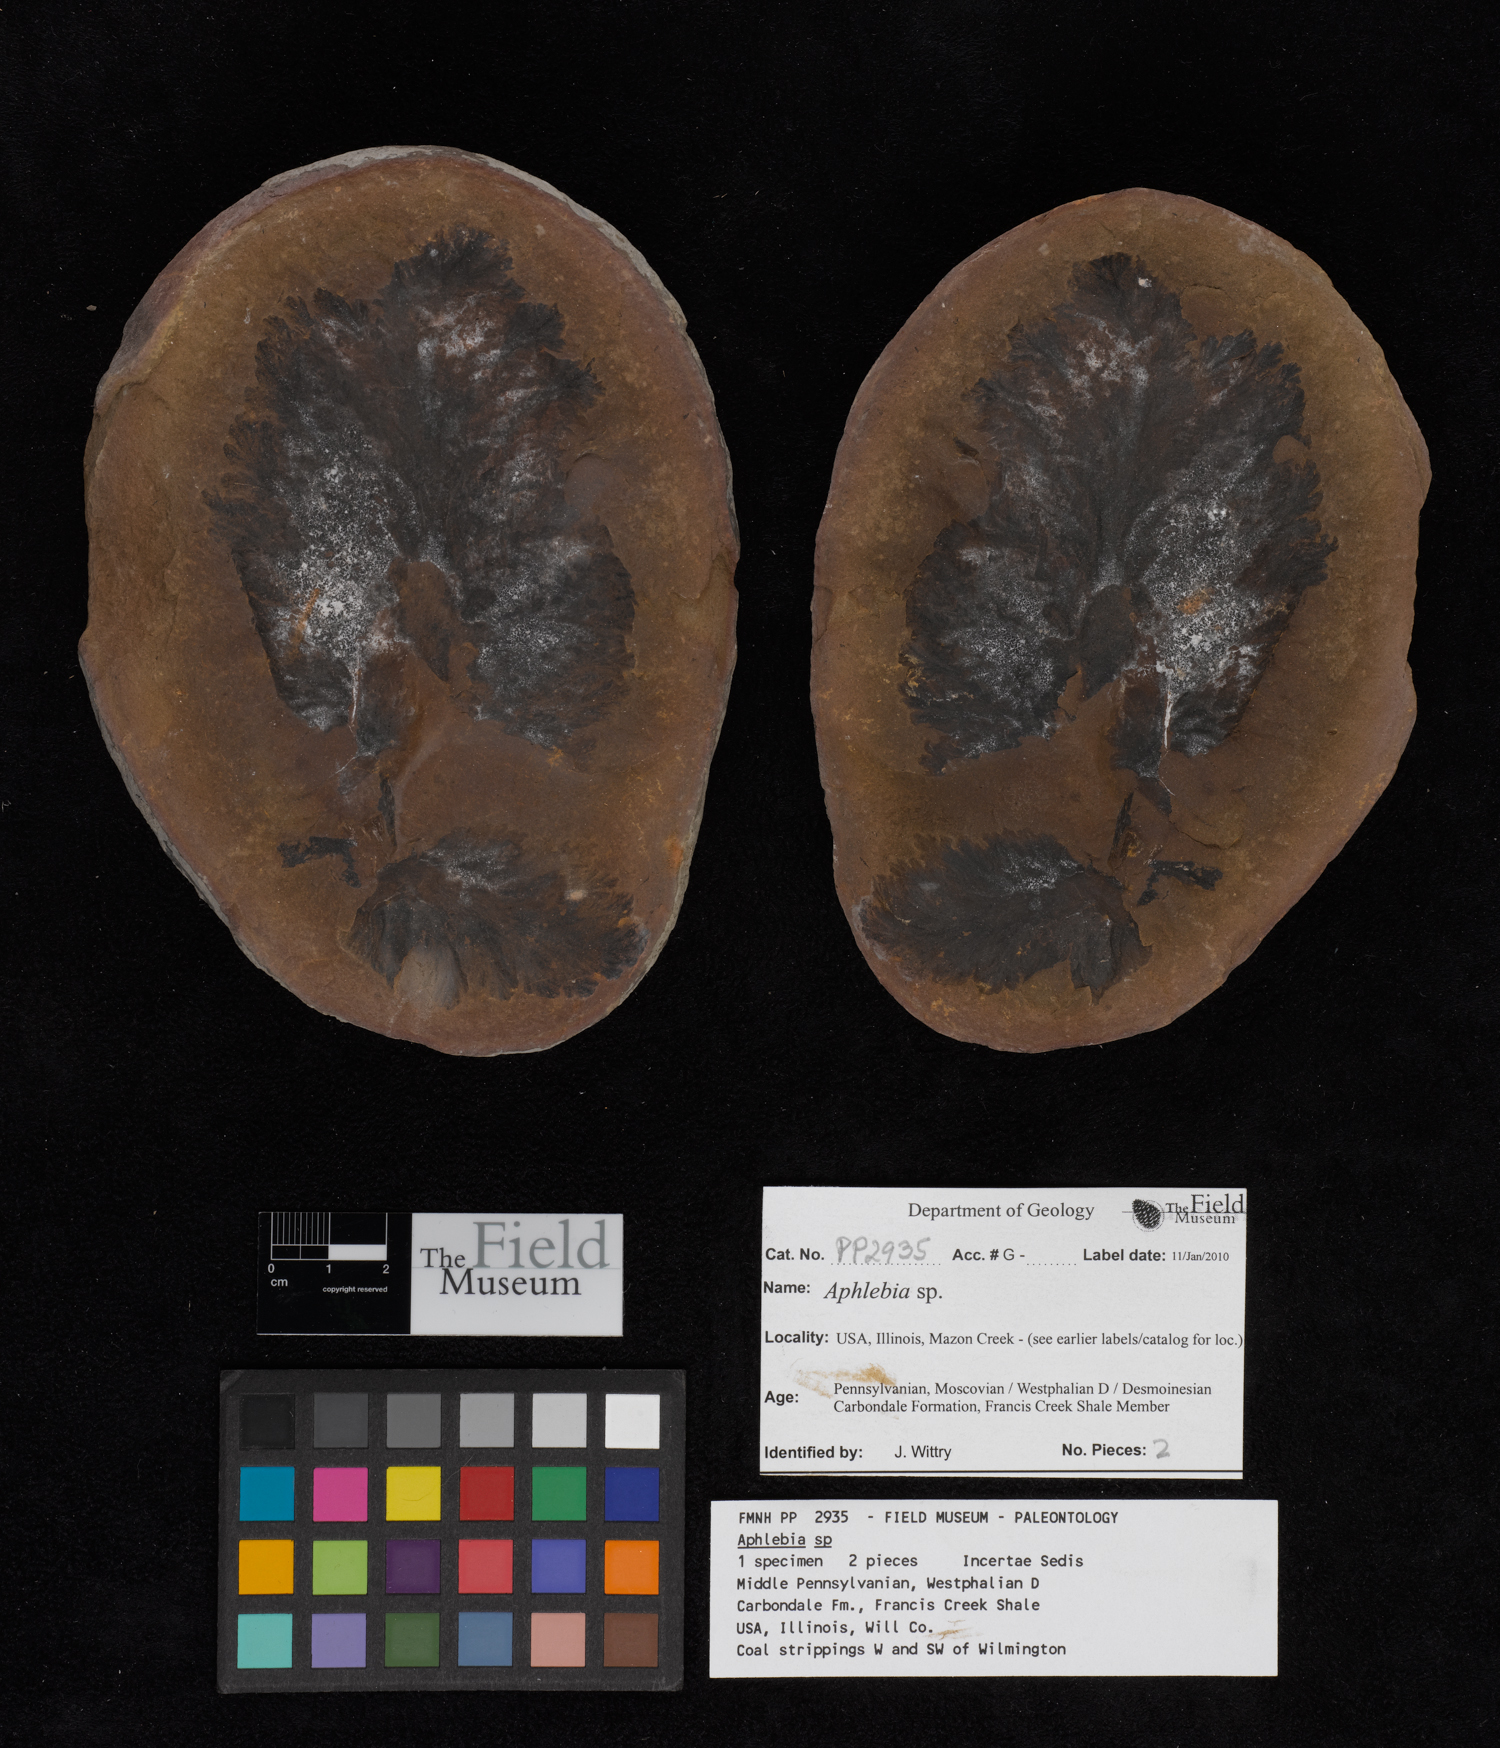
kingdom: Plantae
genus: Rhacophyllum
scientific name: Rhacophyllum
